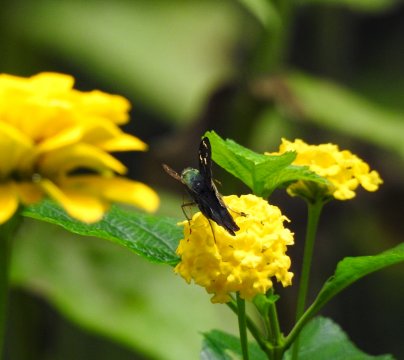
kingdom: Animalia
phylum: Arthropoda
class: Insecta
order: Lepidoptera
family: Hesperiidae
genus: Urbanus
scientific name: Urbanus proteus
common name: Long-tailed Skipper
